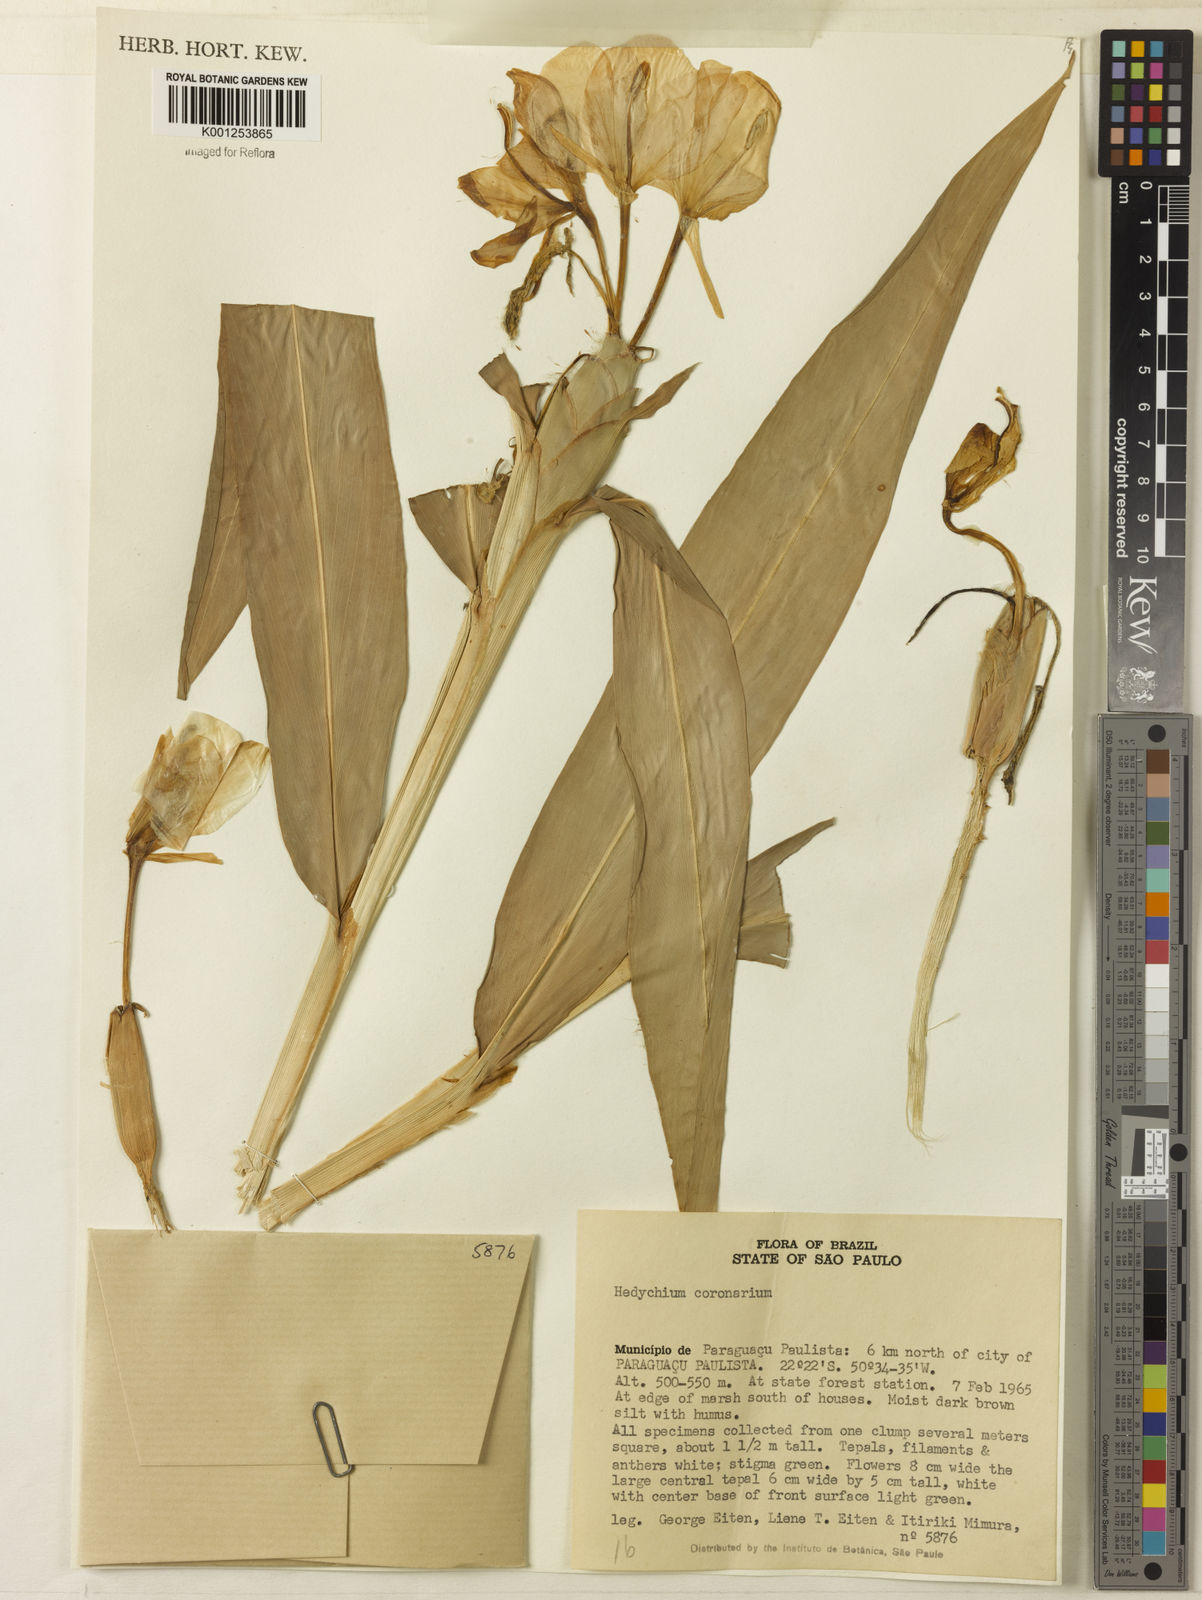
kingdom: Plantae
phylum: Tracheophyta
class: Liliopsida
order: Zingiberales
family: Zingiberaceae
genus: Hedychium
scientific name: Hedychium coronarium
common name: White garland-lily
